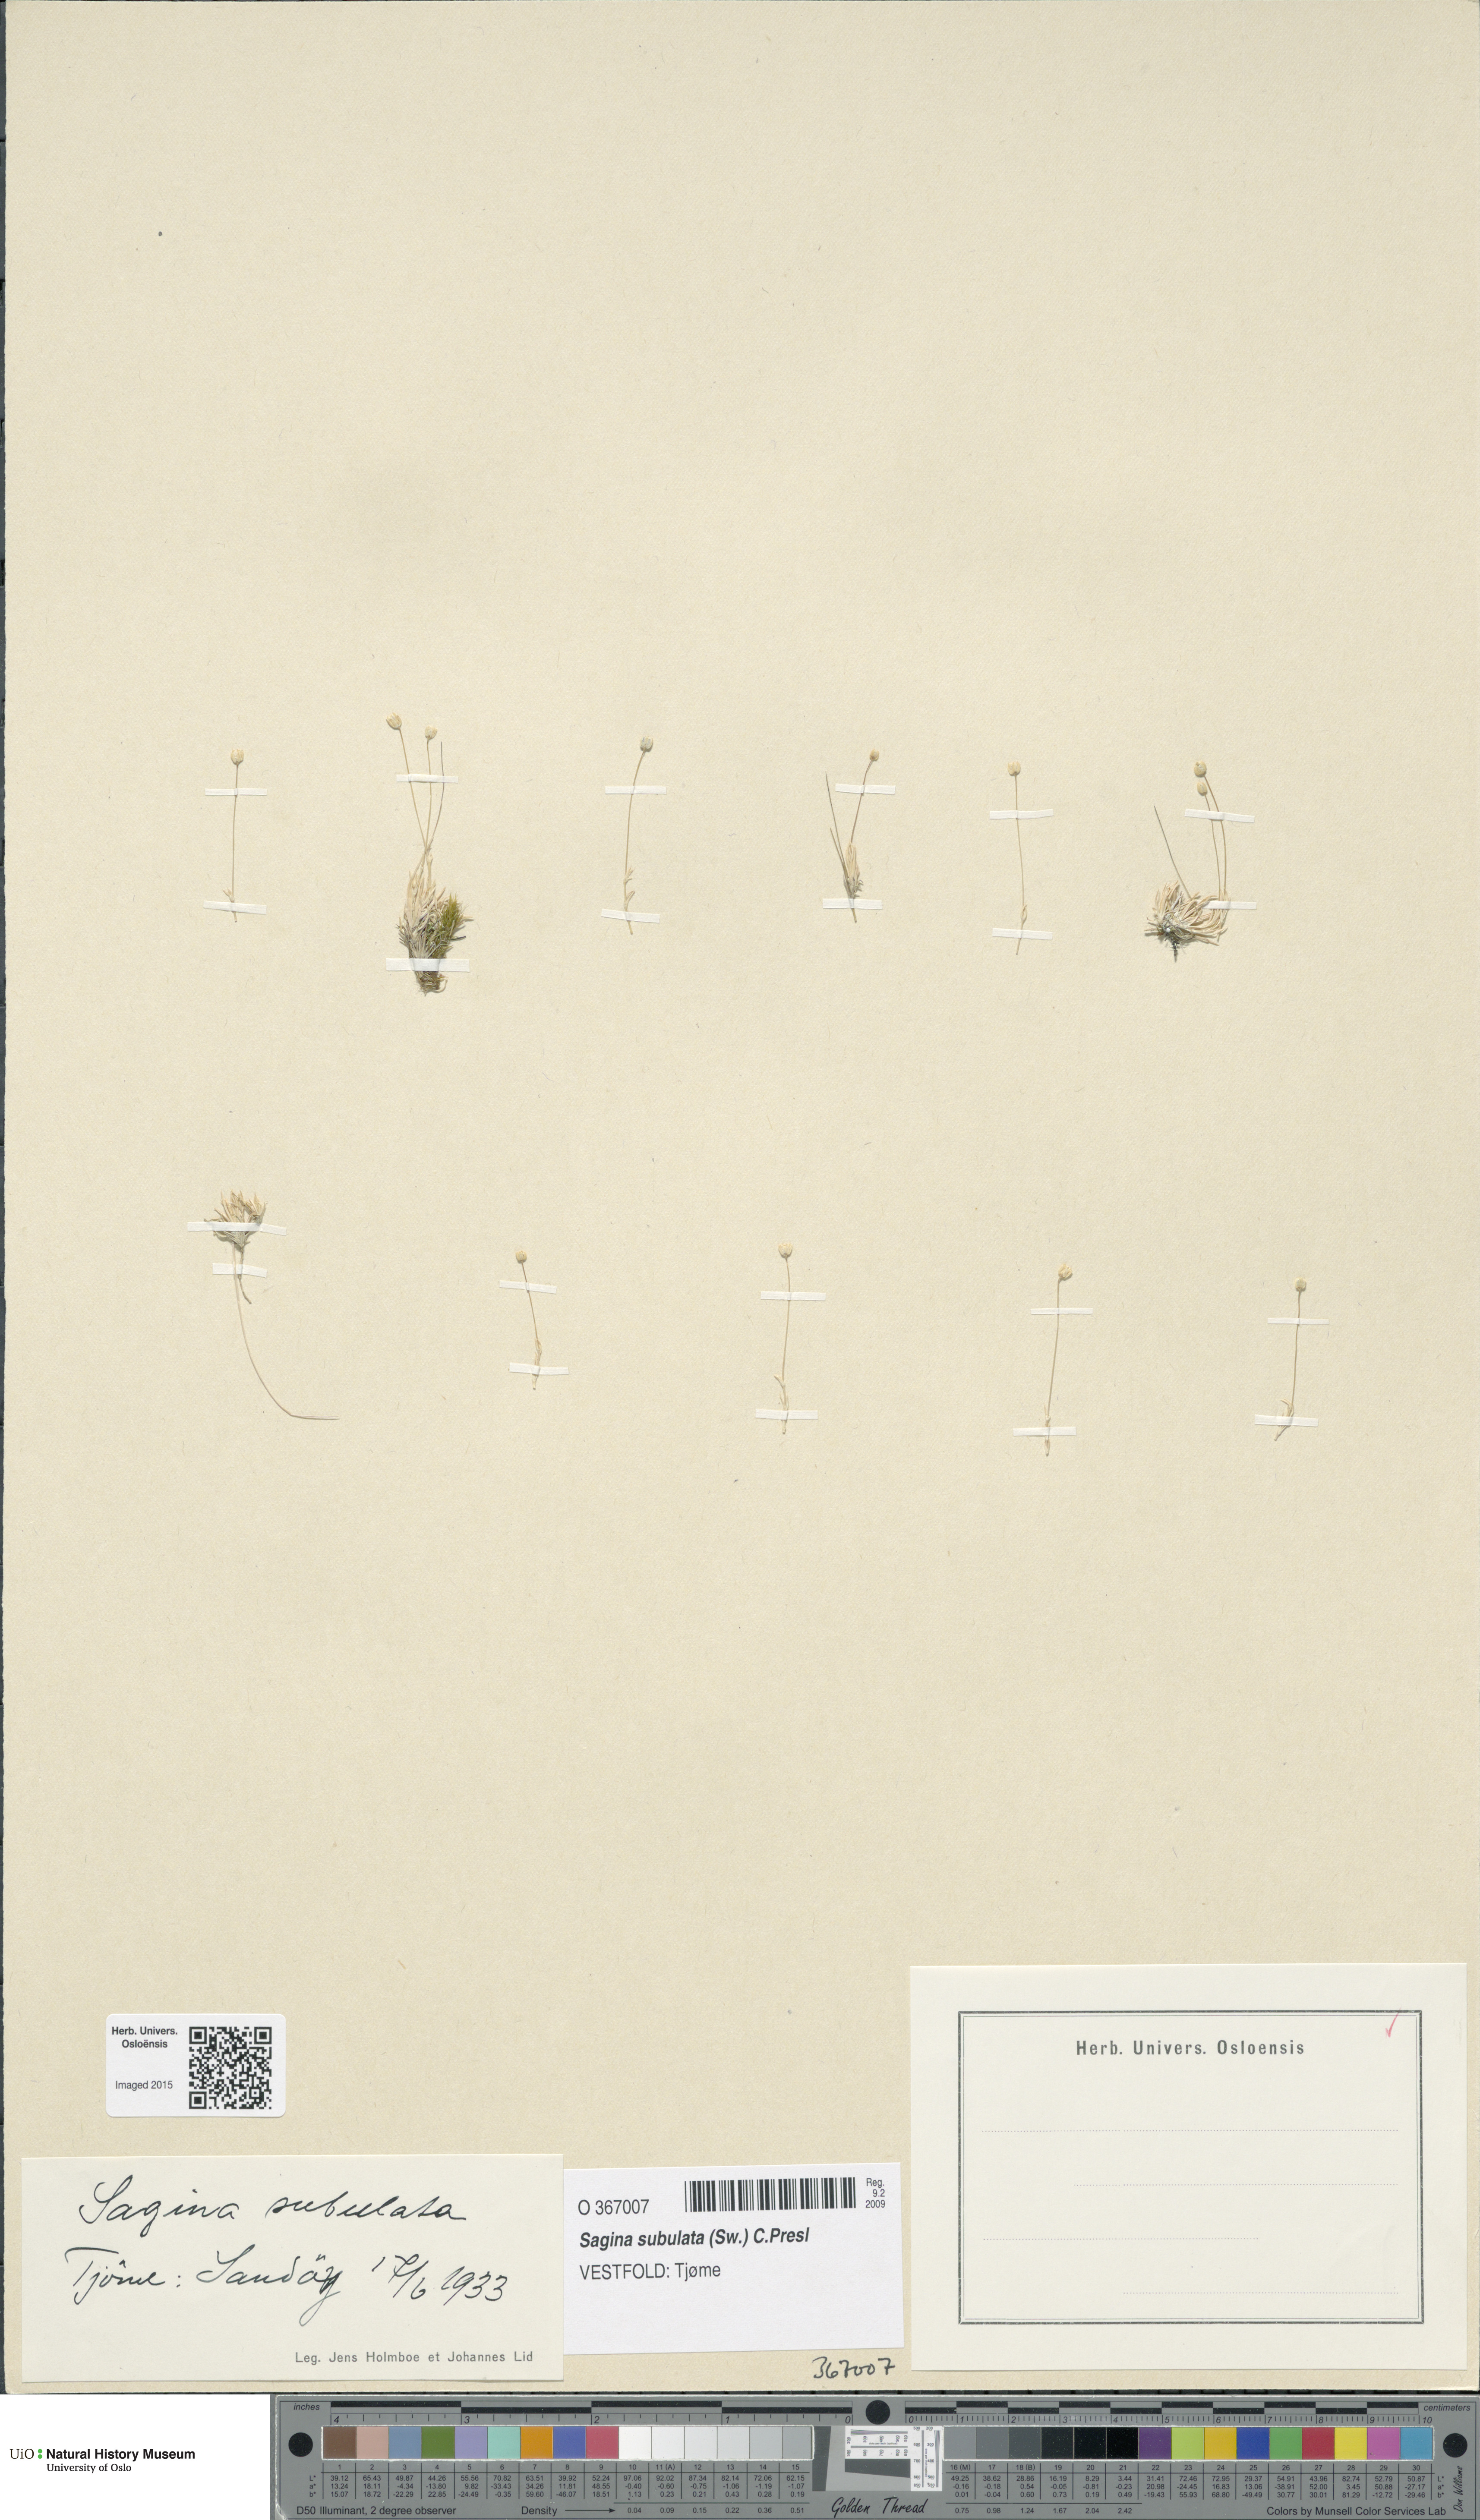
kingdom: Plantae
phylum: Tracheophyta
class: Magnoliopsida
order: Caryophyllales
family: Caryophyllaceae
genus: Sagina
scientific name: Sagina alexandrae
